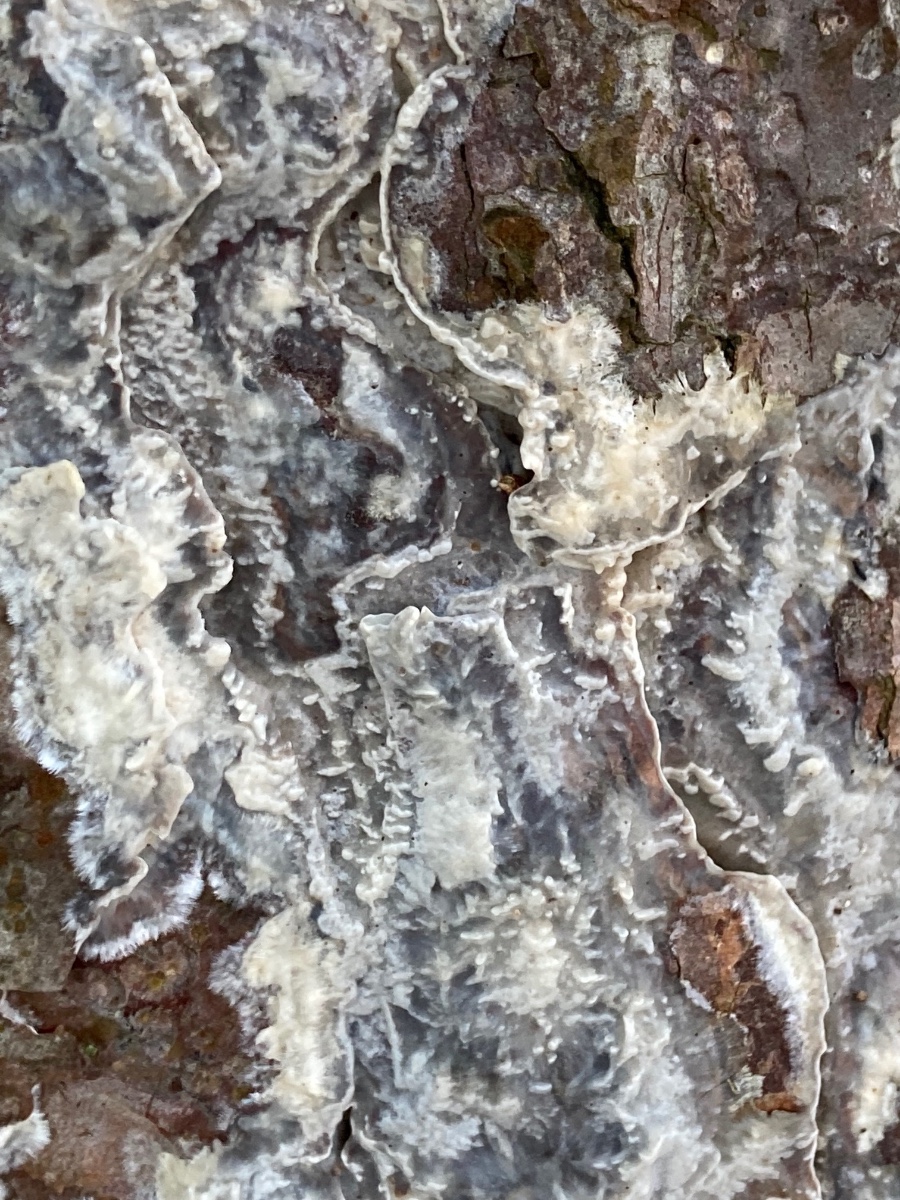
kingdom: Fungi
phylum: Basidiomycota
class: Agaricomycetes
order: Polyporales
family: Phanerochaetaceae
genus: Phlebiopsis
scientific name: Phlebiopsis gigantea
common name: kæmpebarksvamp
